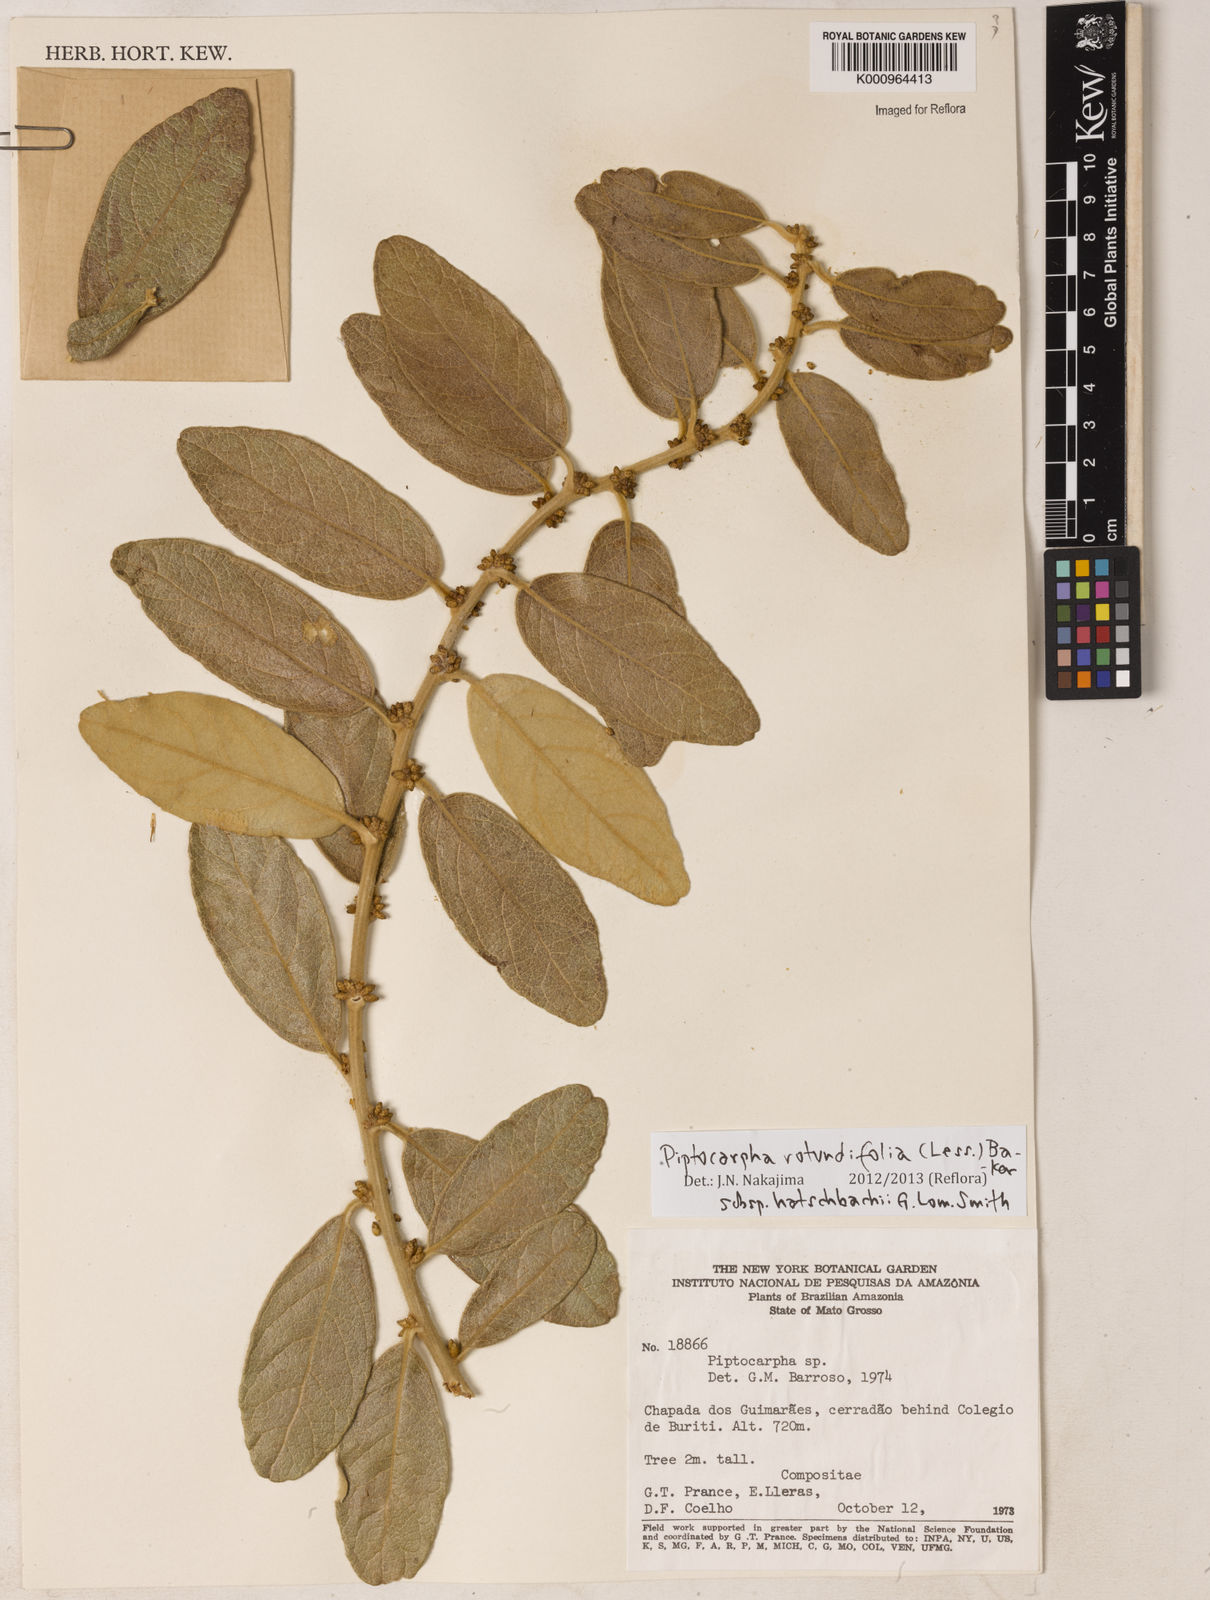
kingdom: Plantae
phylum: Tracheophyta
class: Magnoliopsida
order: Asterales
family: Asteraceae
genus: Piptocarpha
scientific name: Piptocarpha rotundifolia
